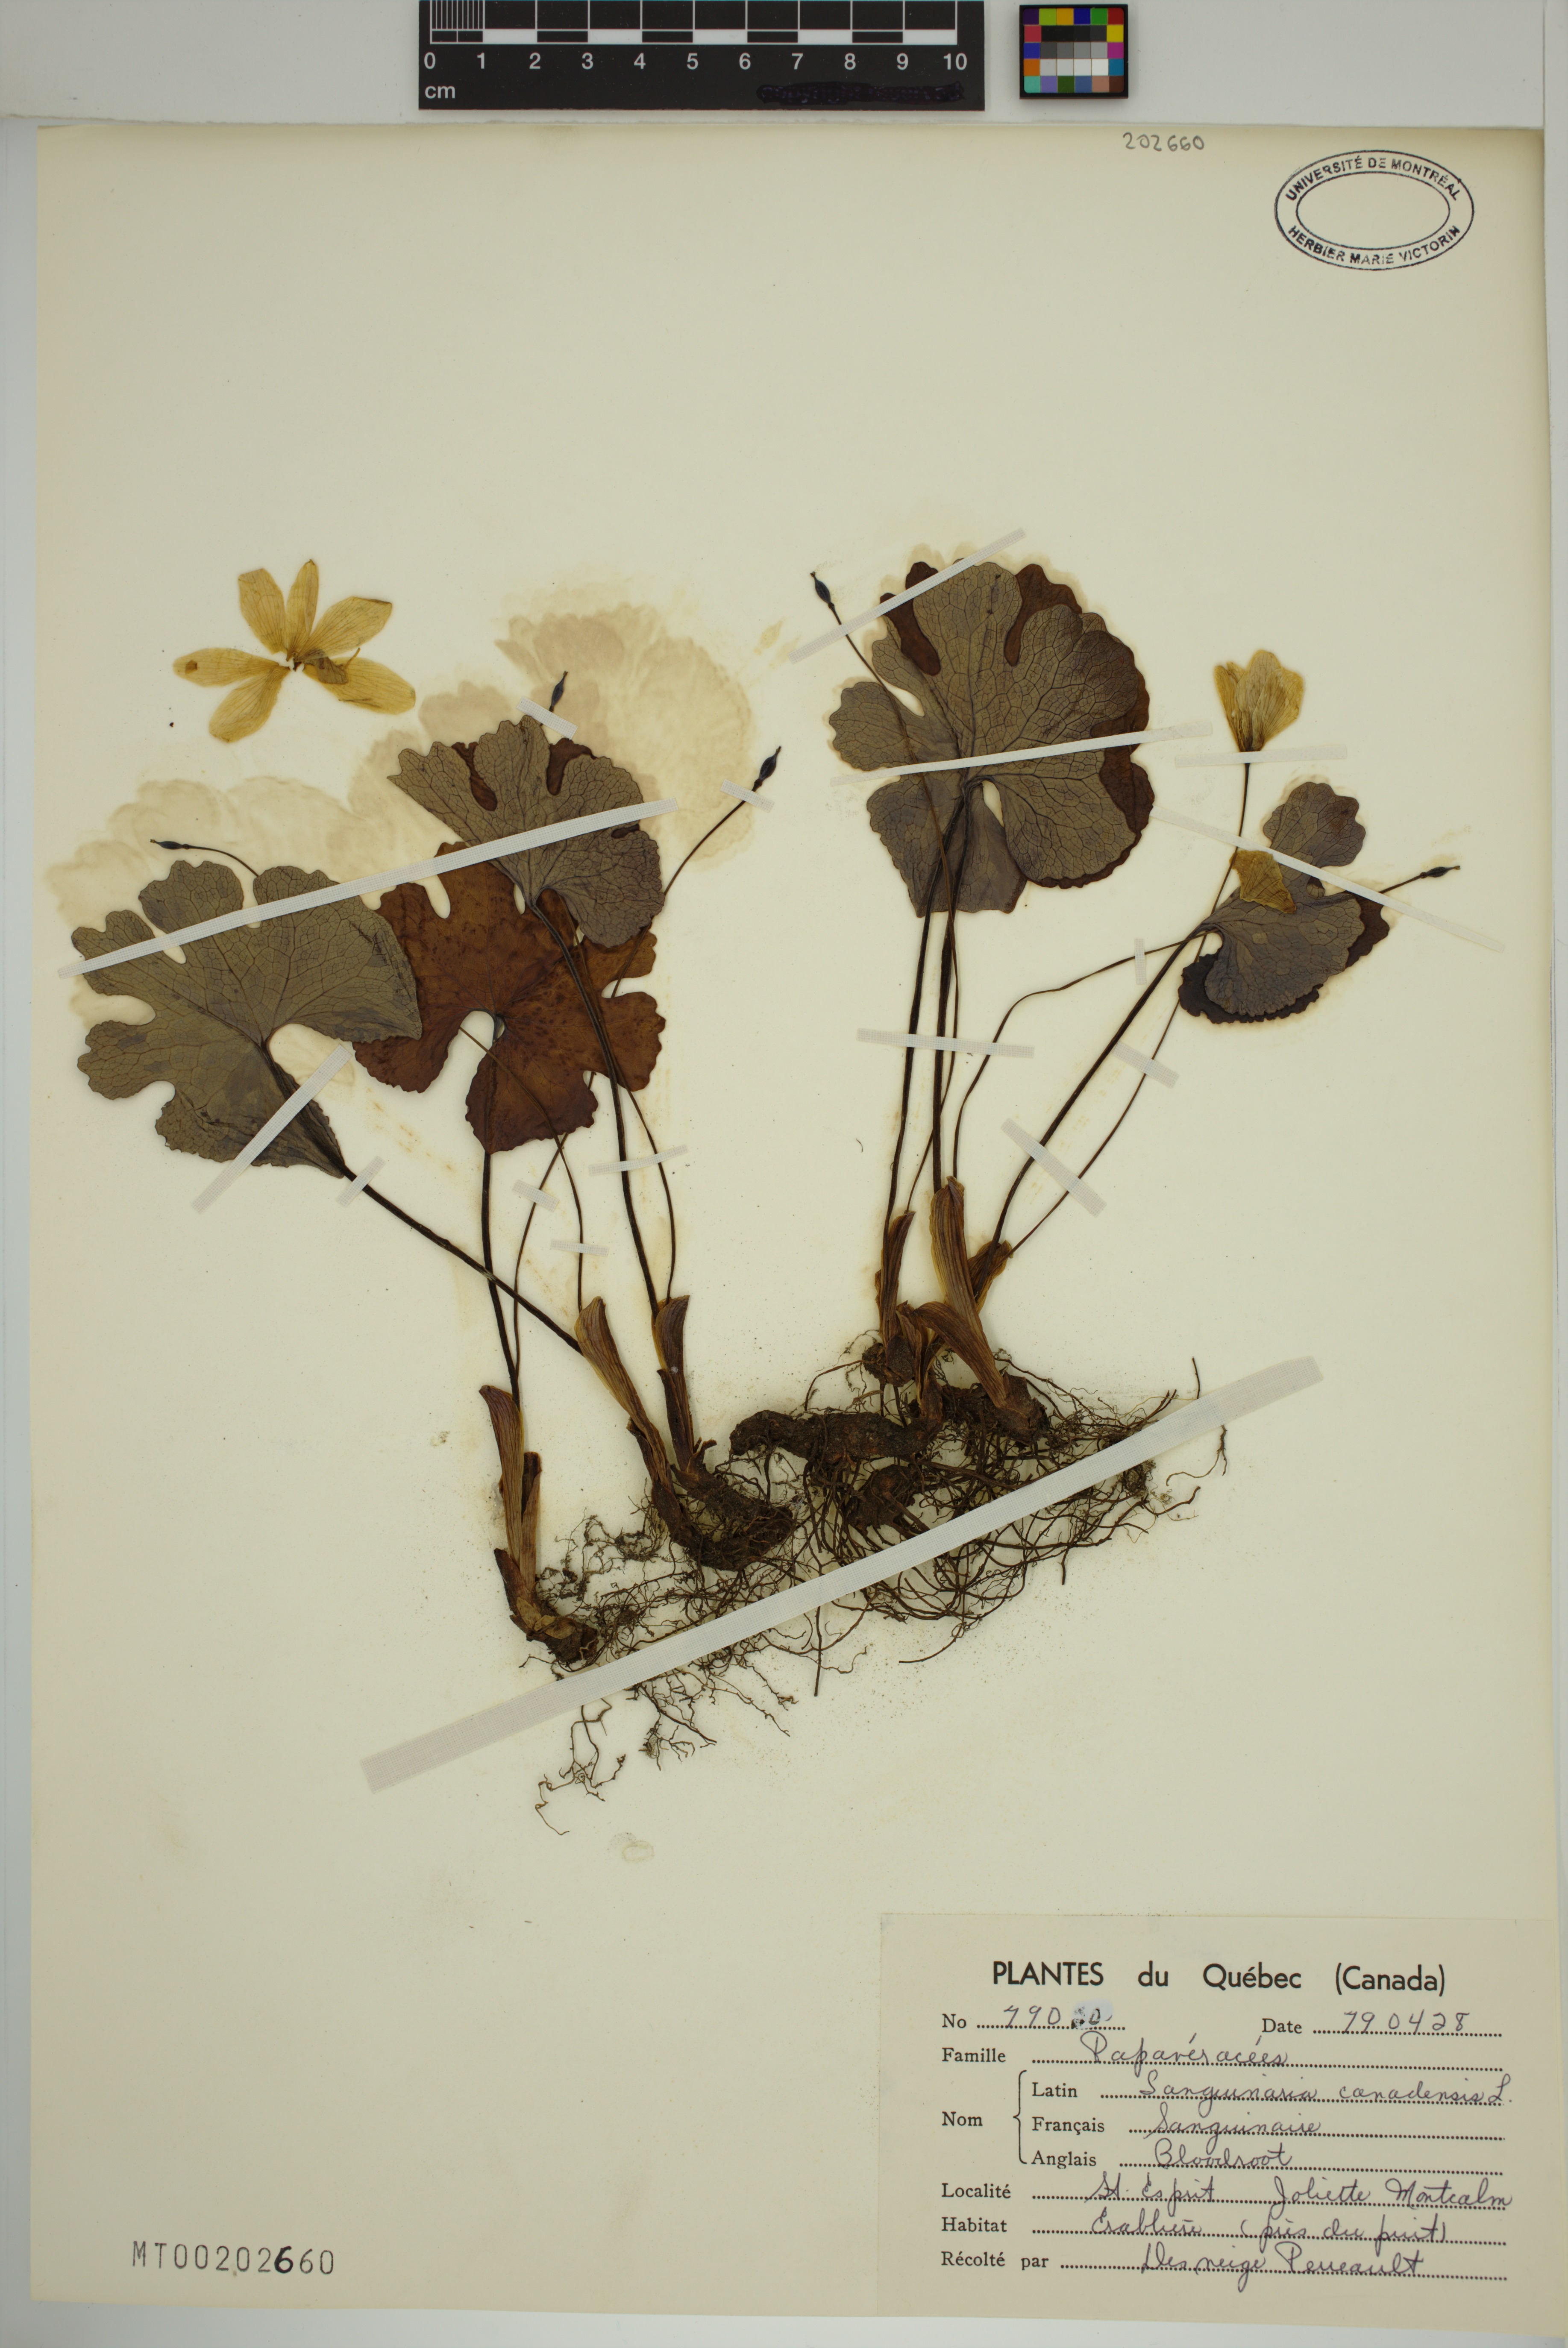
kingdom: Plantae
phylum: Tracheophyta
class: Magnoliopsida
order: Ranunculales
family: Papaveraceae
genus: Sanguinaria
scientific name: Sanguinaria canadensis
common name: Bloodroot
